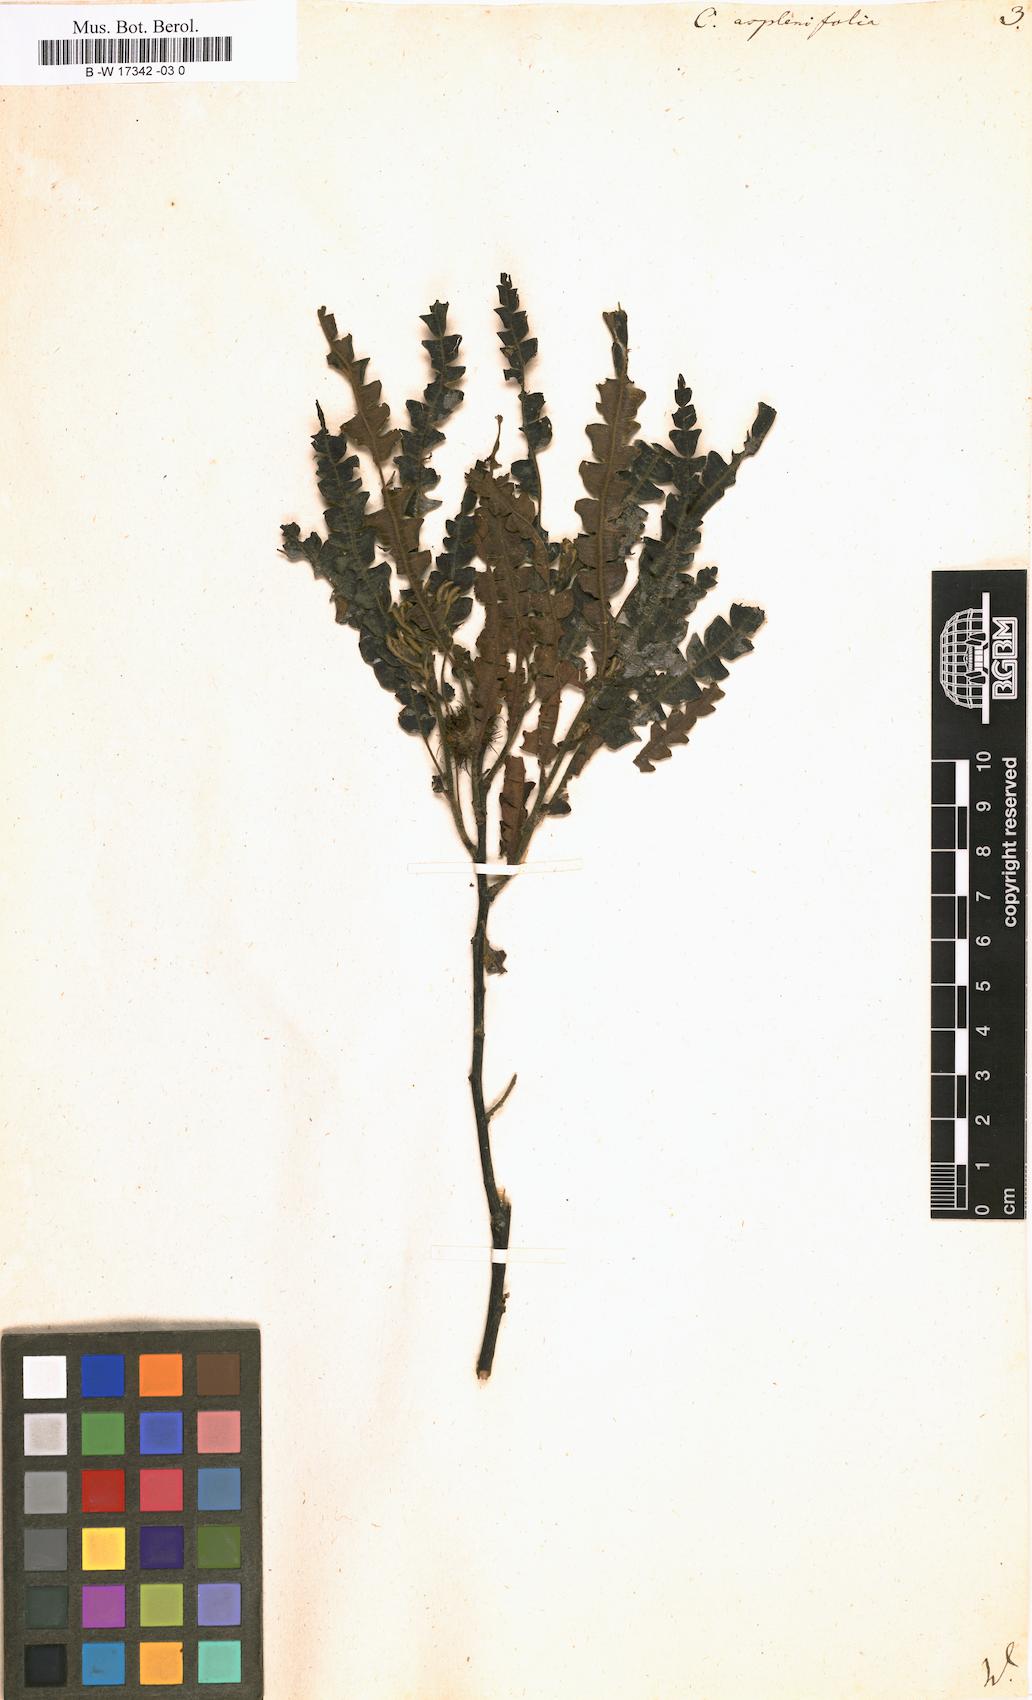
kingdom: Plantae
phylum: Tracheophyta
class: Magnoliopsida
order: Fagales
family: Myricaceae
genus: Comptonia
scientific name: Comptonia aspleniifolia
